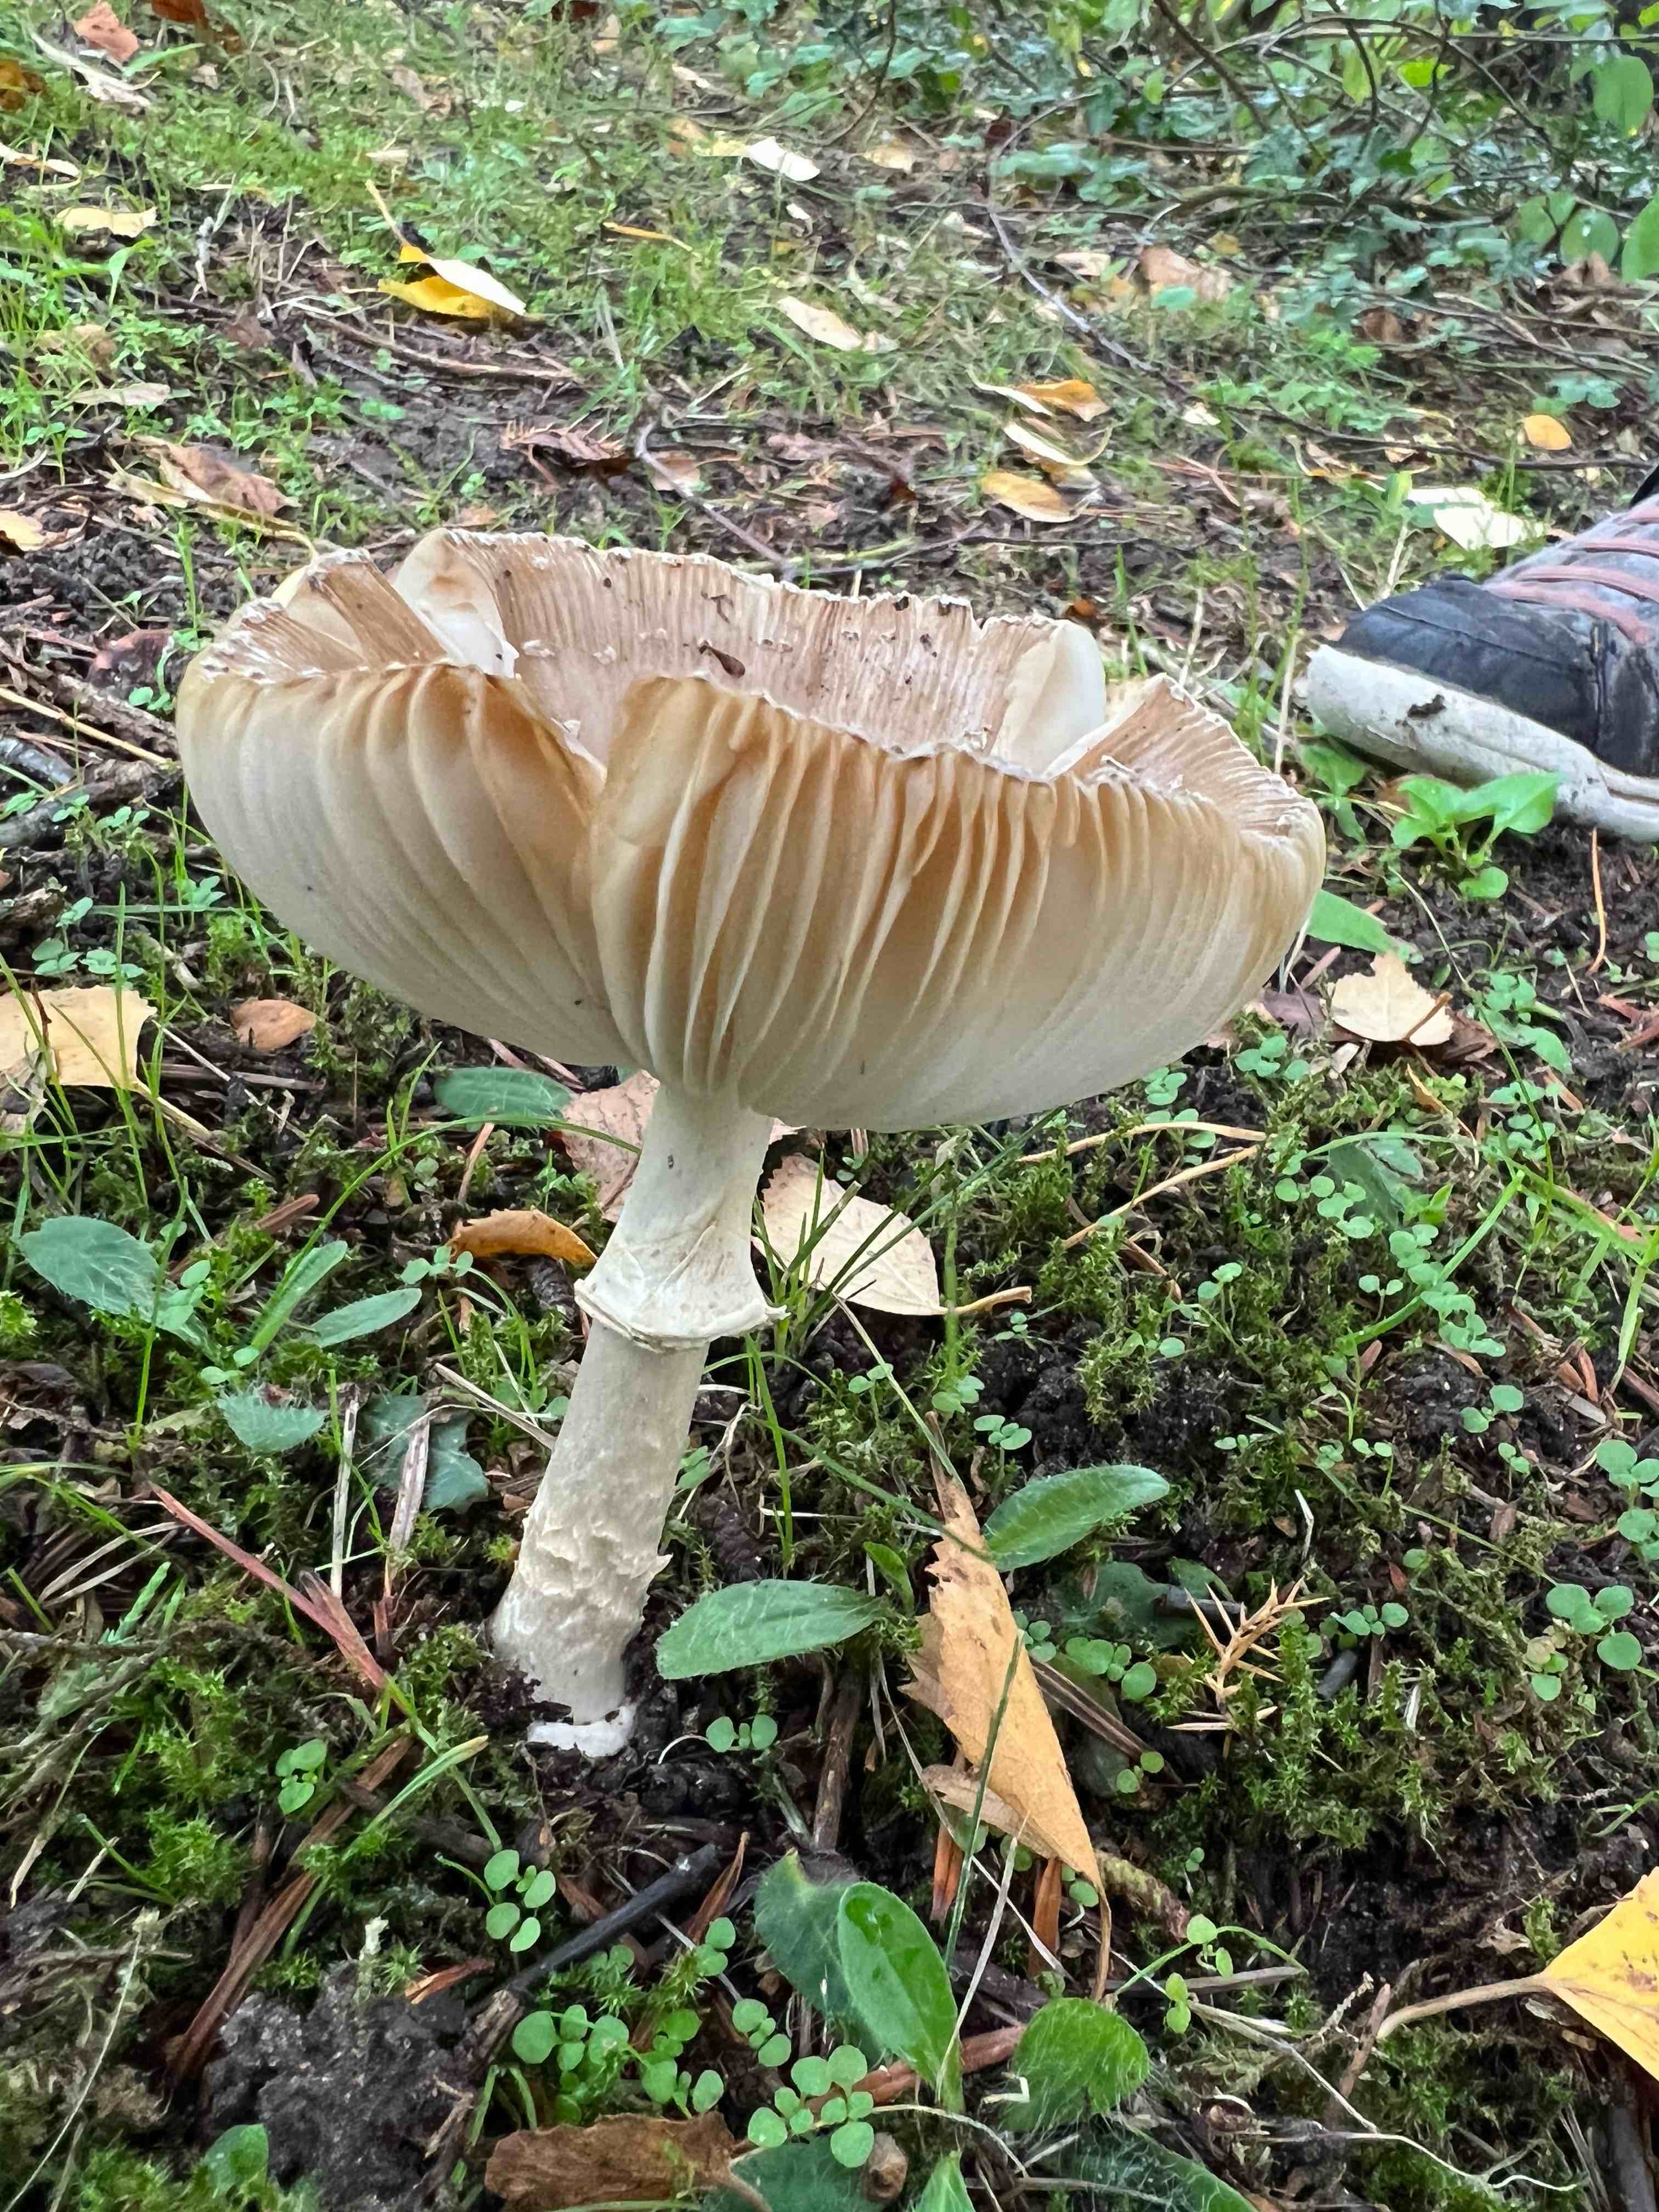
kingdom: Fungi
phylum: Basidiomycota
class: Agaricomycetes
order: Agaricales
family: Amanitaceae
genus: Amanita
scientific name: Amanita pantherina
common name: panter-fluesvamp
